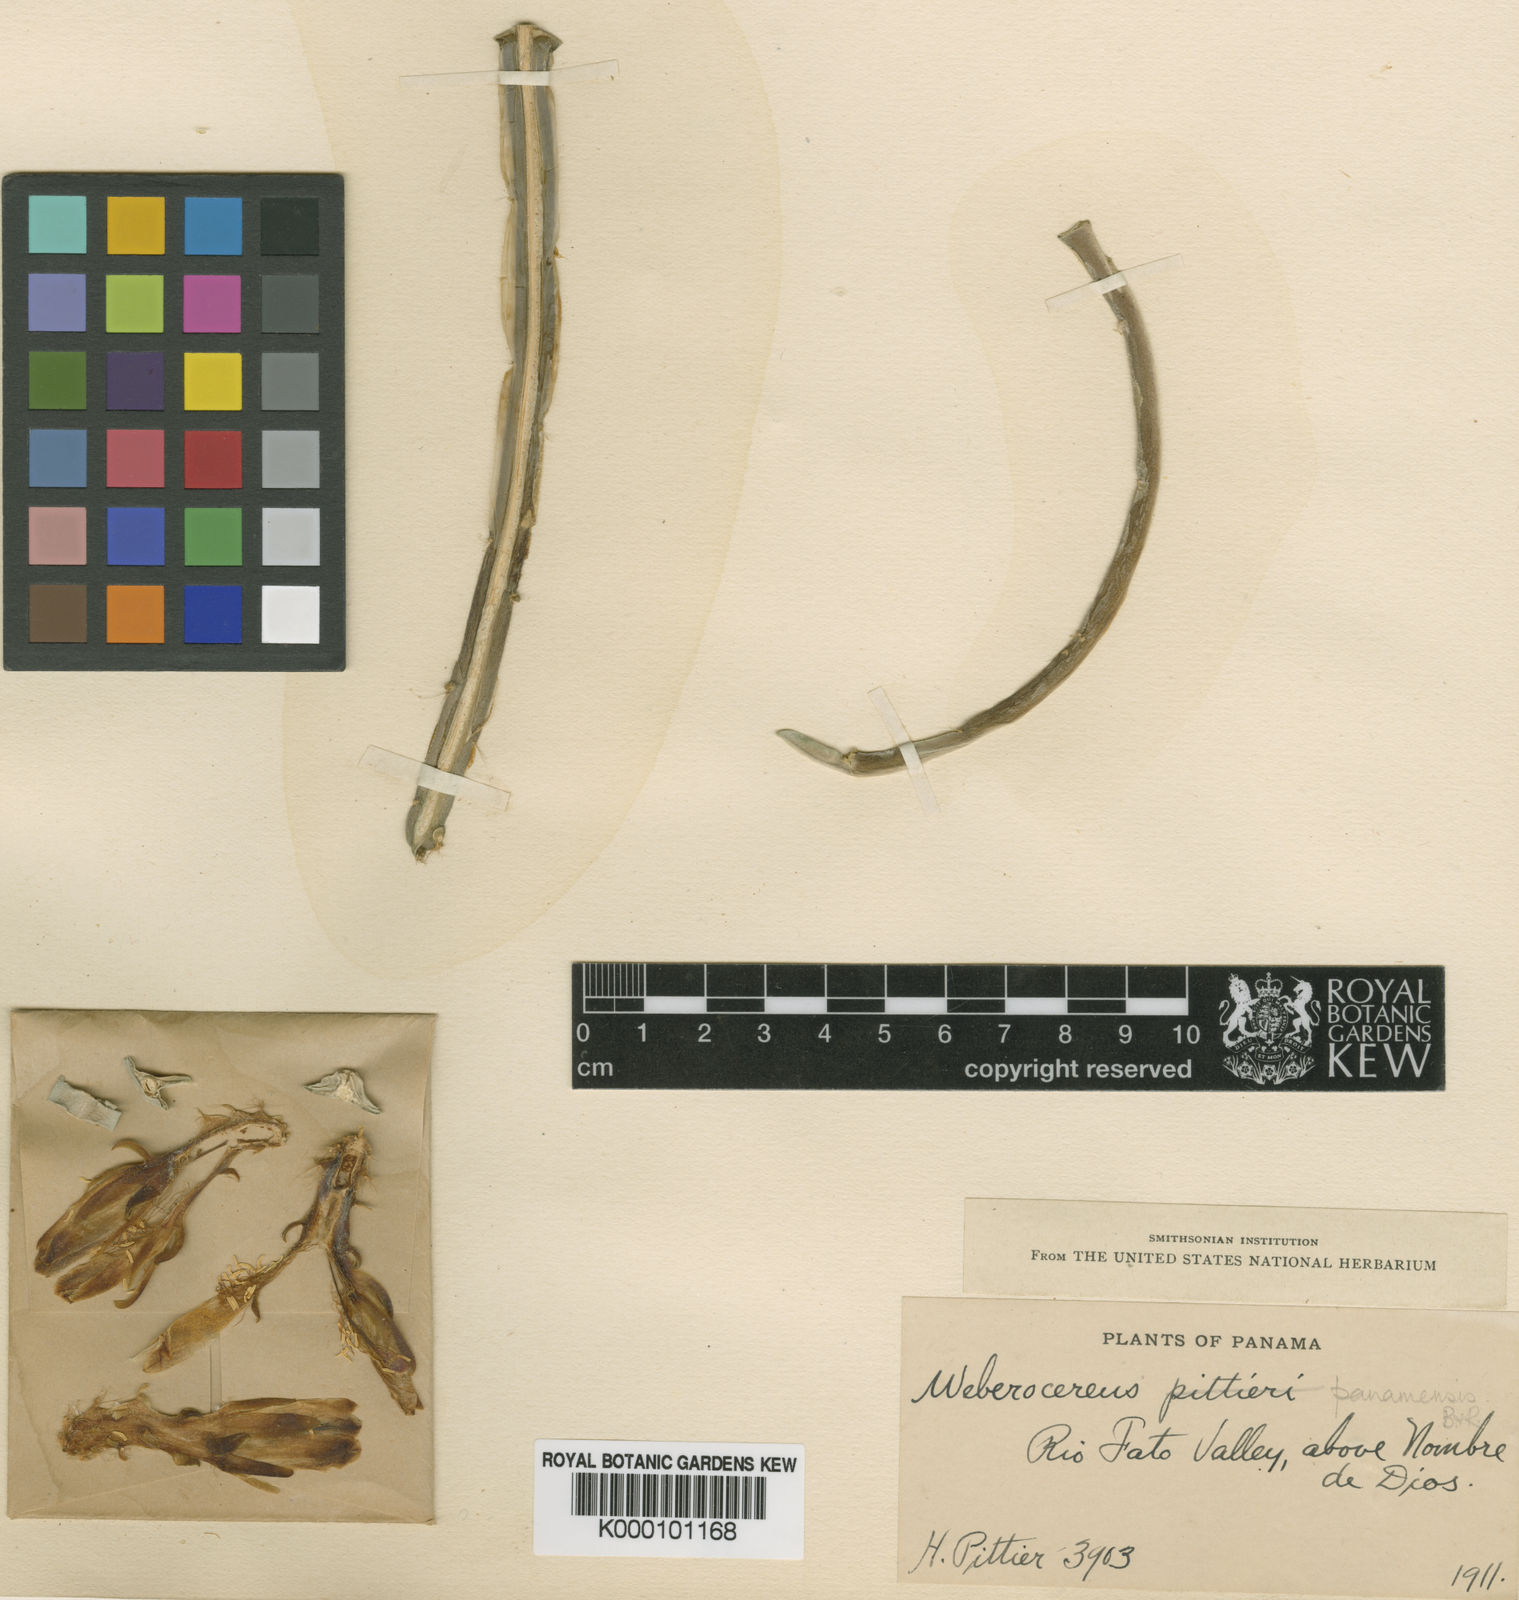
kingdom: Plantae
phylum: Tracheophyta
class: Magnoliopsida
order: Caryophyllales
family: Cactaceae
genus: Weberocereus
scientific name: Weberocereus tunilla
